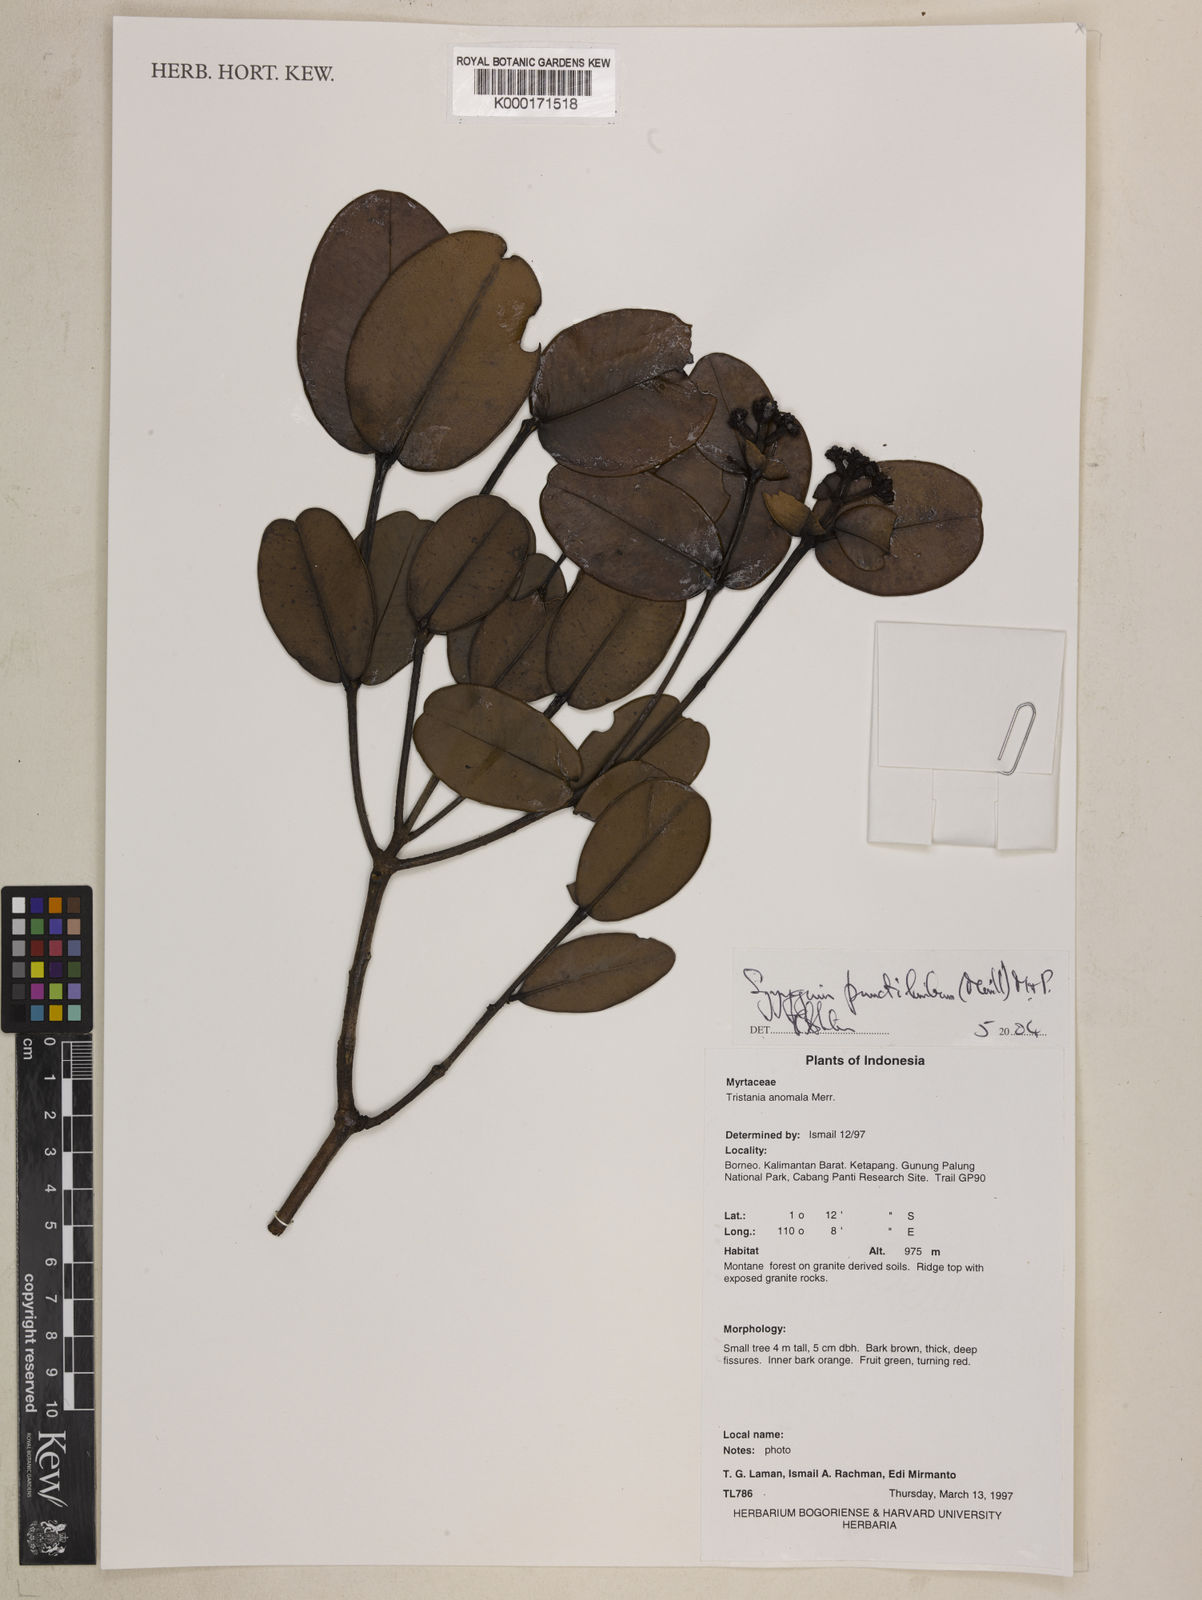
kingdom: Plantae
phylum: Tracheophyta
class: Magnoliopsida
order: Myrtales
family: Myrtaceae
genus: Syzygium
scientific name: Syzygium punctilimbum
